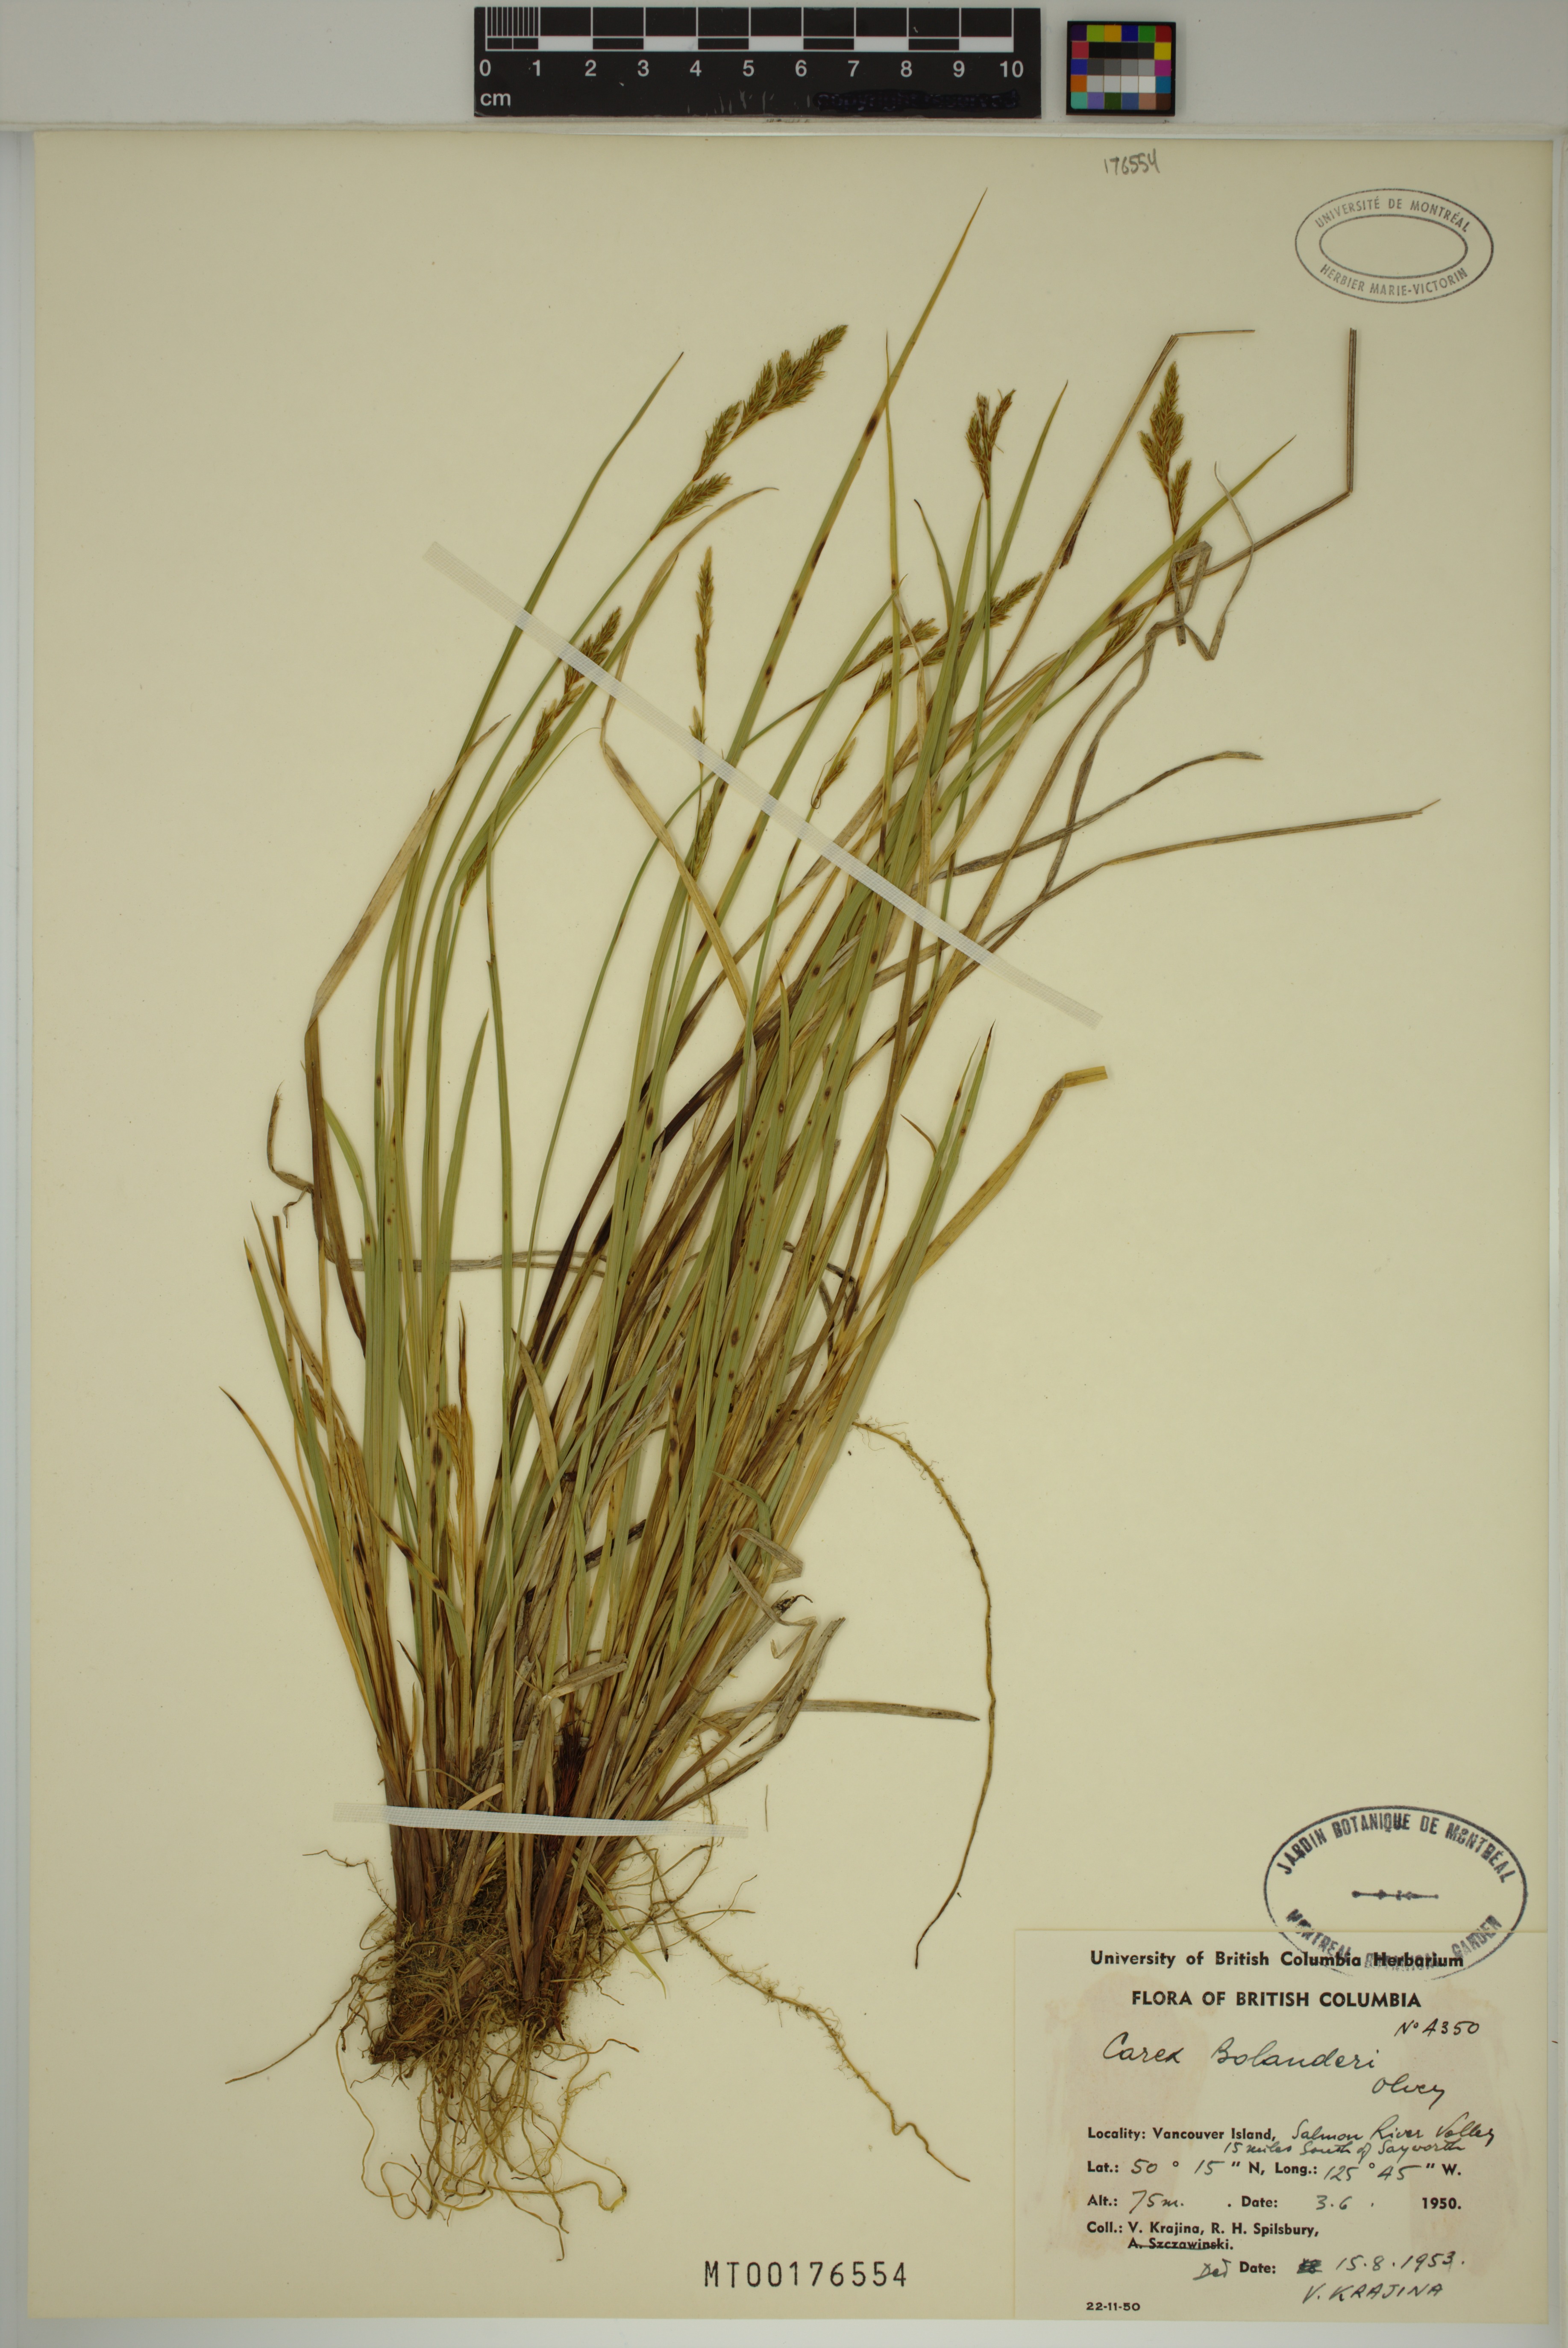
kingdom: Plantae
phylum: Tracheophyta
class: Liliopsida
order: Poales
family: Cyperaceae
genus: Carex
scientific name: Carex bolanderi
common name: Bolander's sedge
